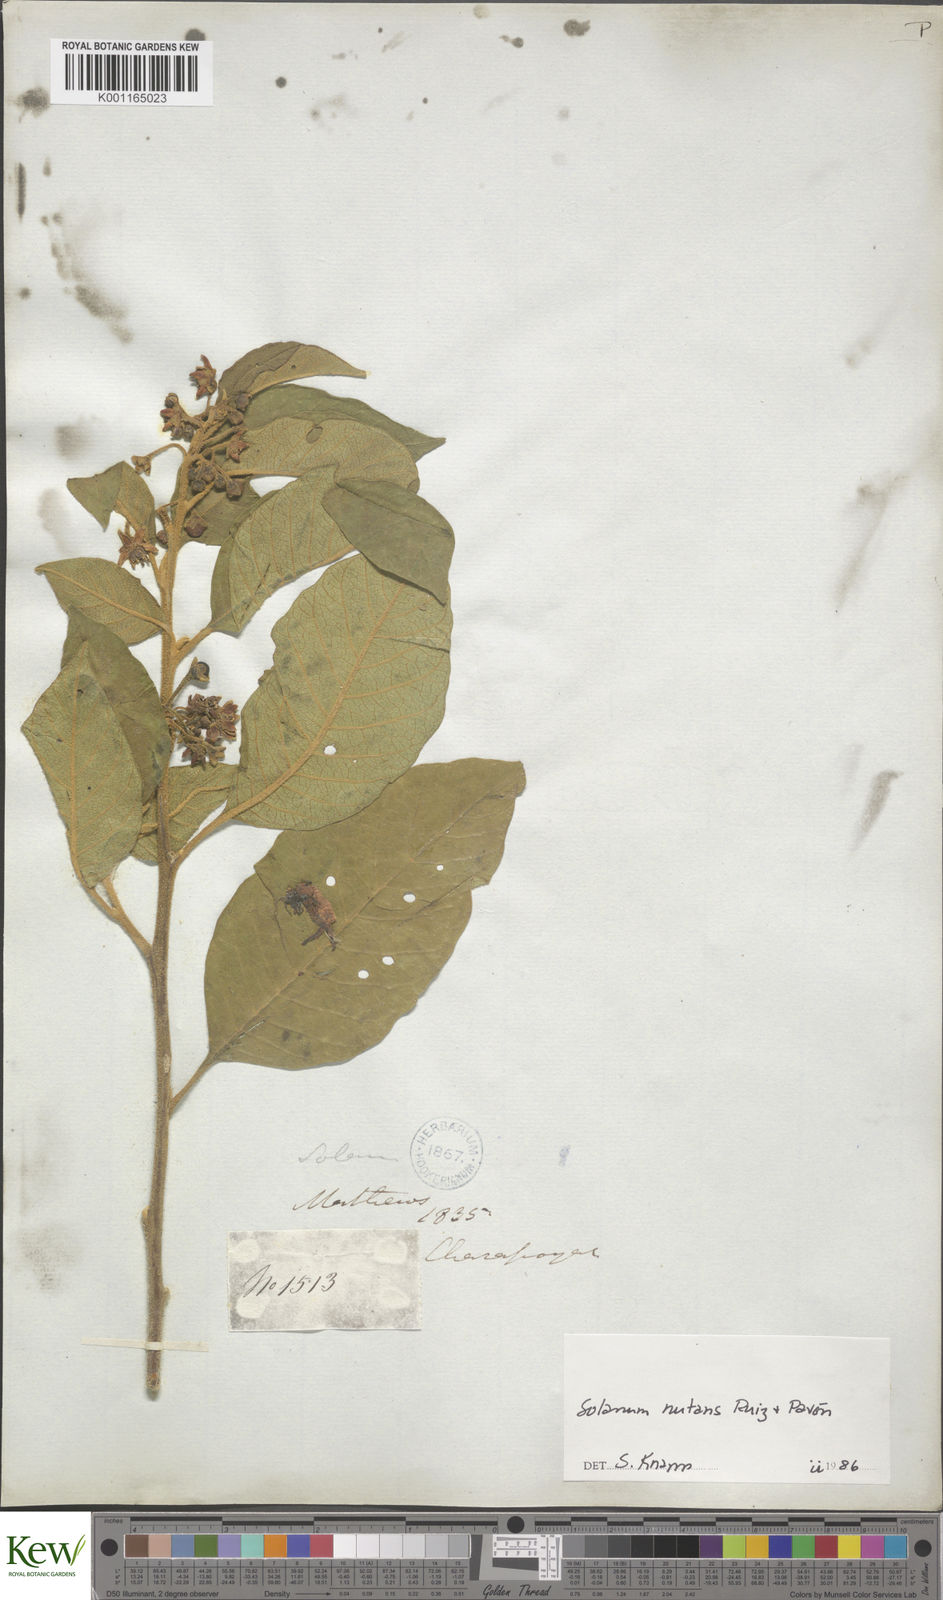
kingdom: Plantae
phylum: Tracheophyta
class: Magnoliopsida
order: Solanales
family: Solanaceae
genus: Solanum
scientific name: Solanum nutans
